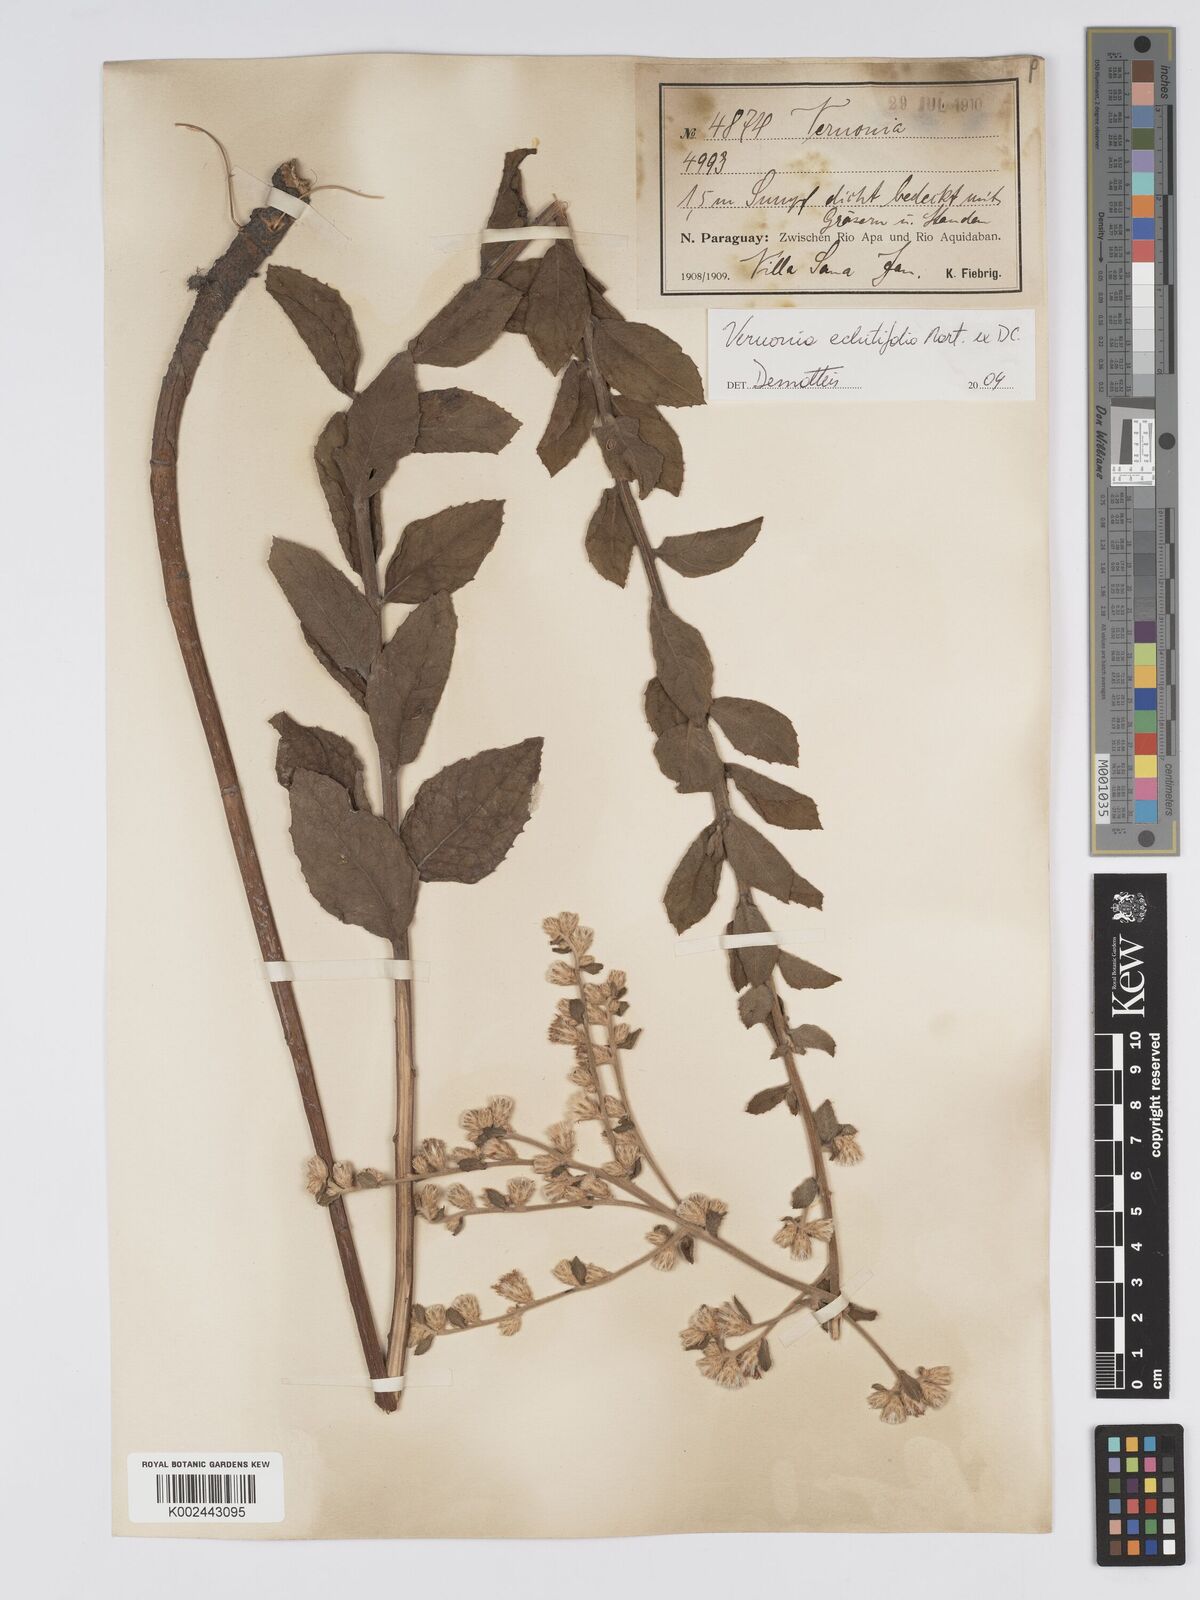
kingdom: Plantae
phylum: Tracheophyta
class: Magnoliopsida
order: Asterales
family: Asteraceae
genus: Acilepidopsis
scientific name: Acilepidopsis echitifolia
